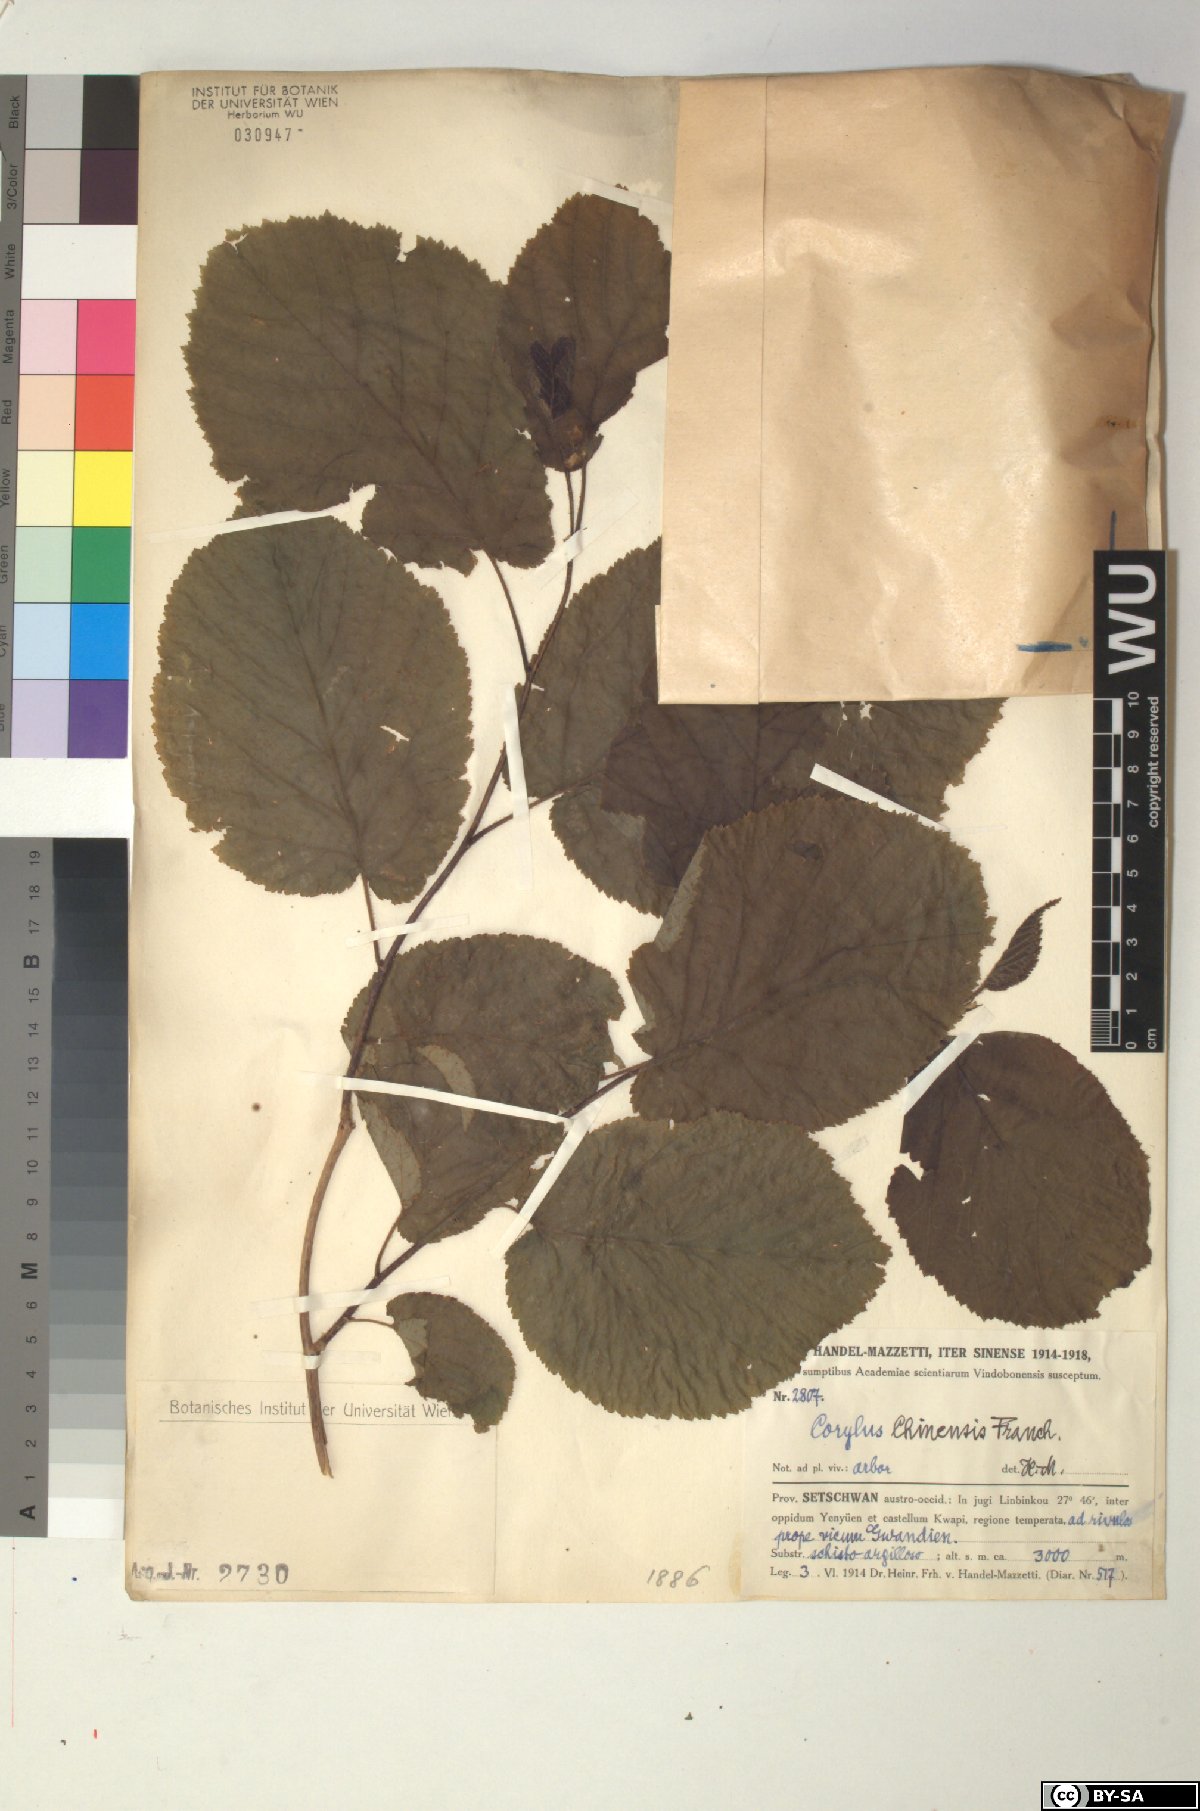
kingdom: Plantae
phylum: Tracheophyta
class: Magnoliopsida
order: Fagales
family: Betulaceae
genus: Corylus
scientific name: Corylus chinensis
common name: Chinese hazlenut
